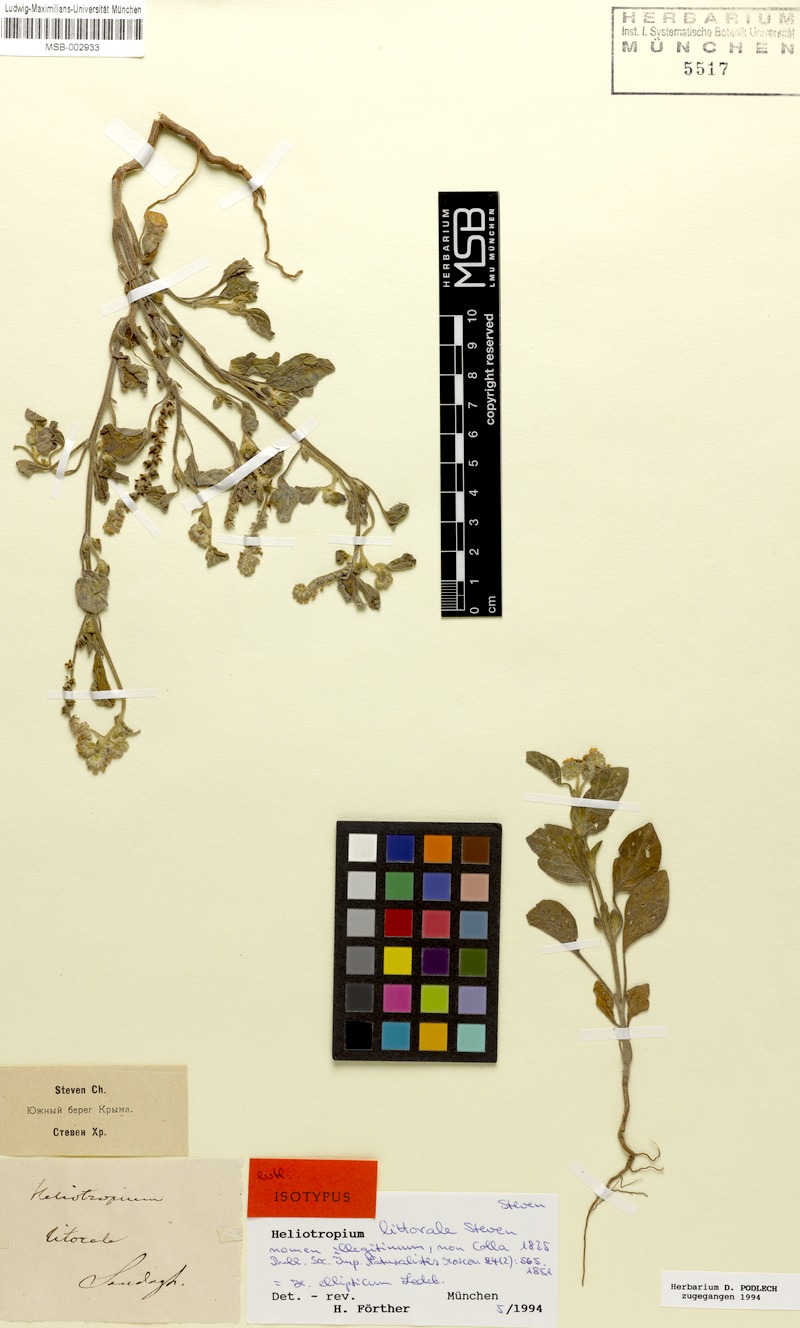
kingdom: Plantae
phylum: Tracheophyta
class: Magnoliopsida
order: Boraginales
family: Heliotropiaceae
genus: Heliotropium
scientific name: Heliotropium ellipticum
